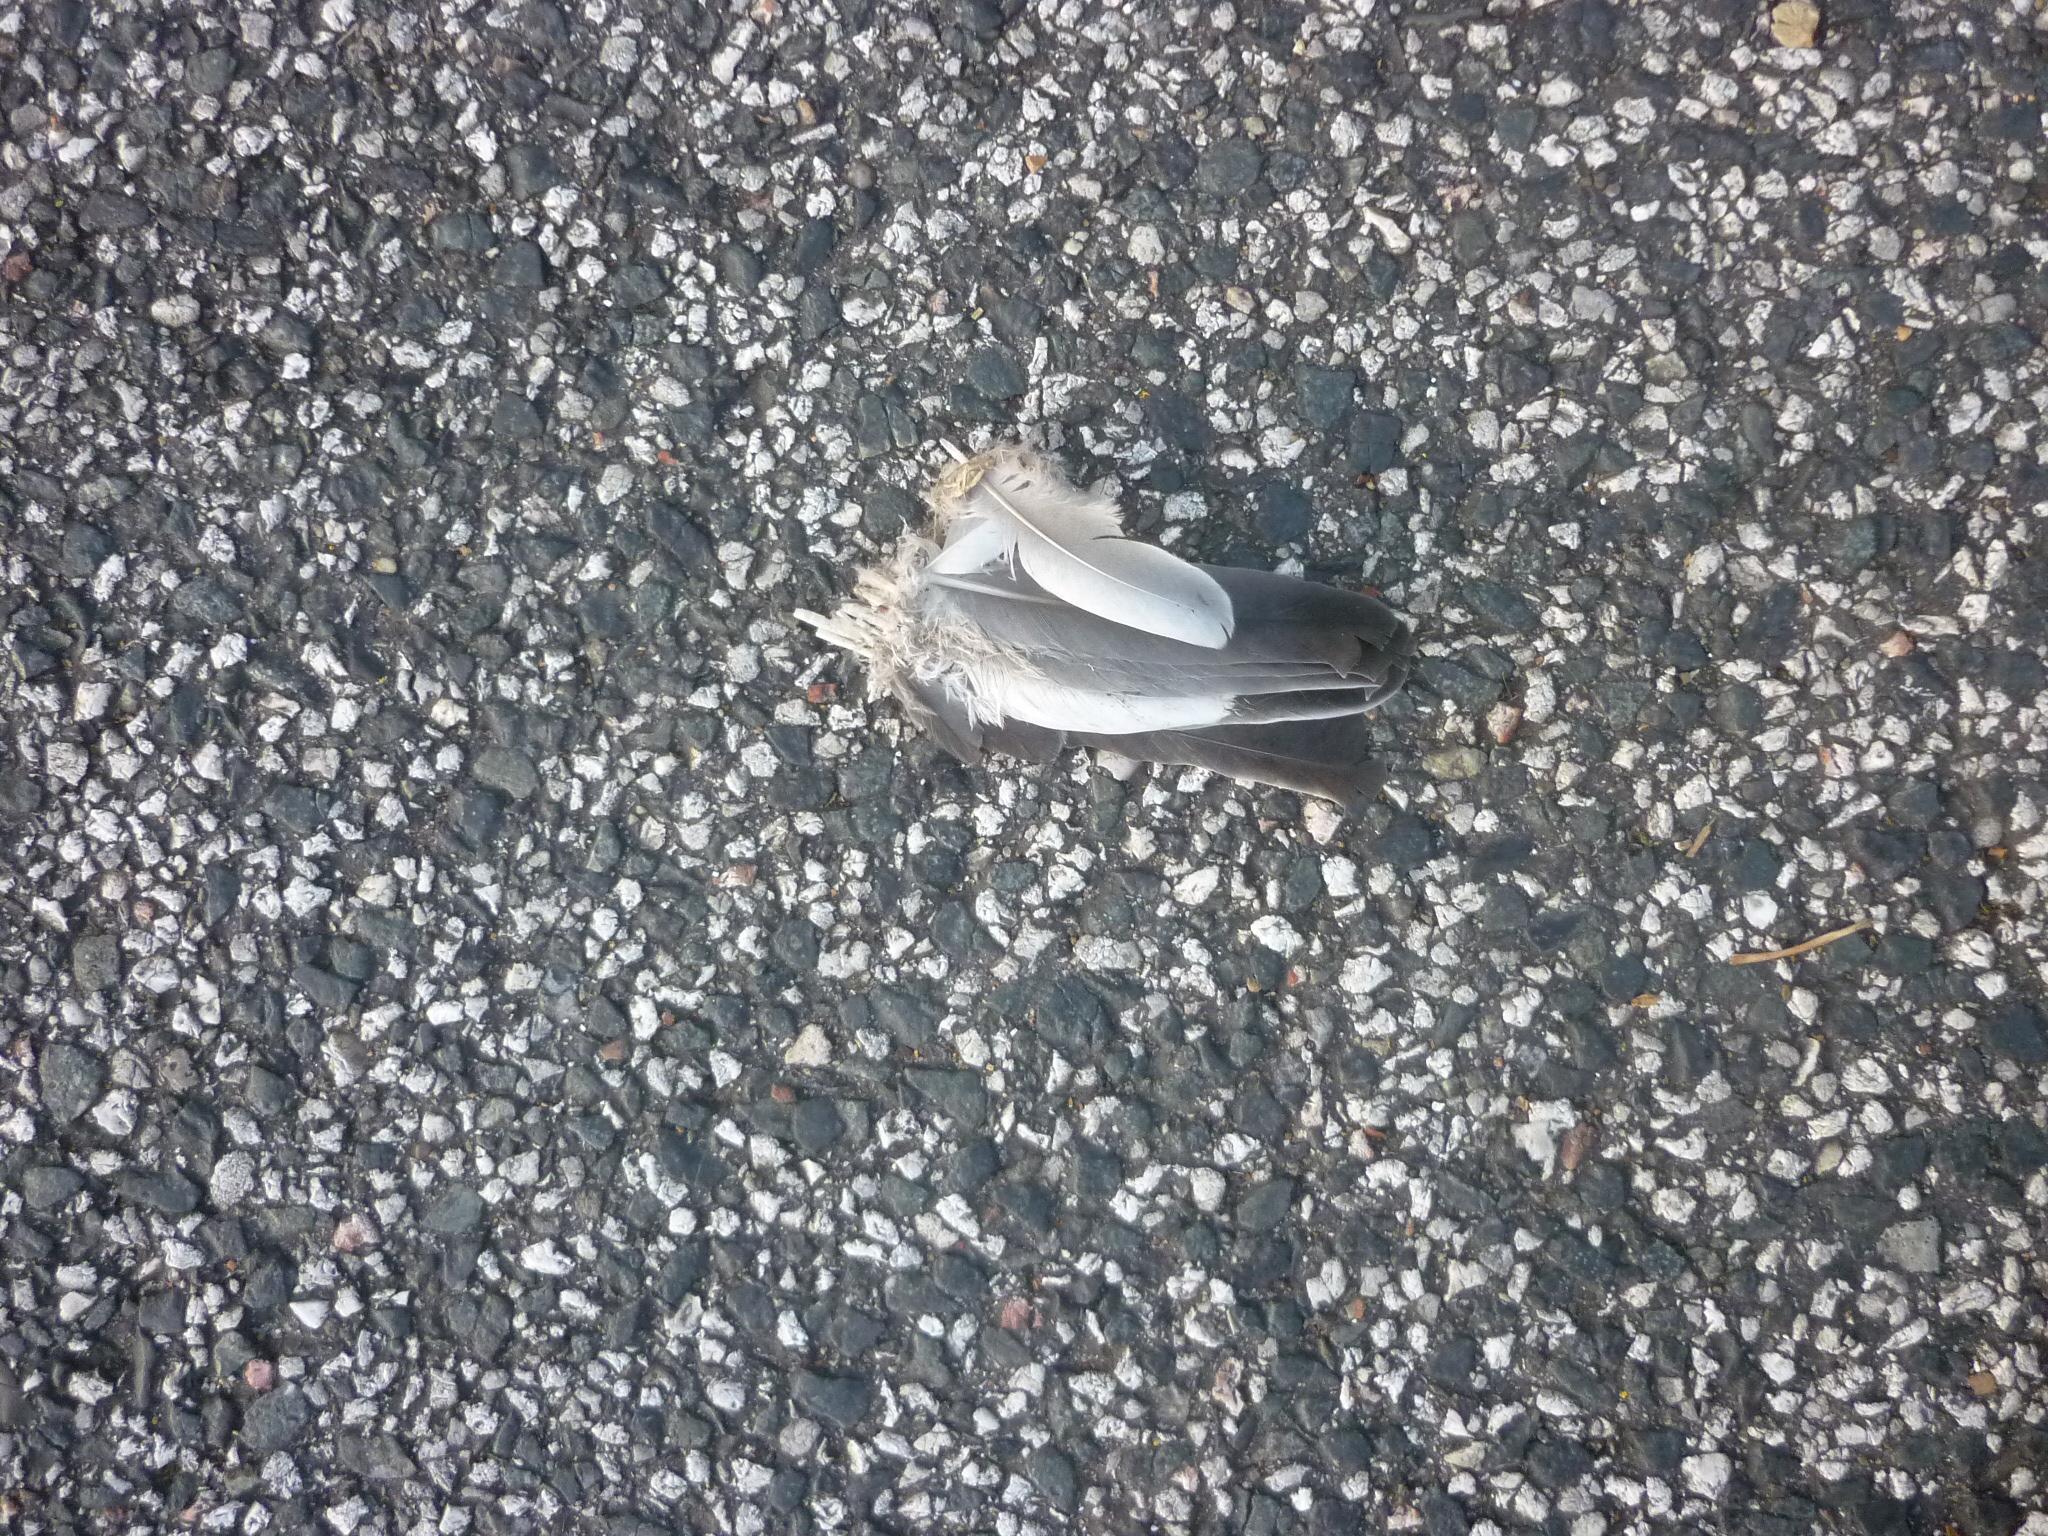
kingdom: Animalia
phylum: Chordata
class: Aves
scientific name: Aves
